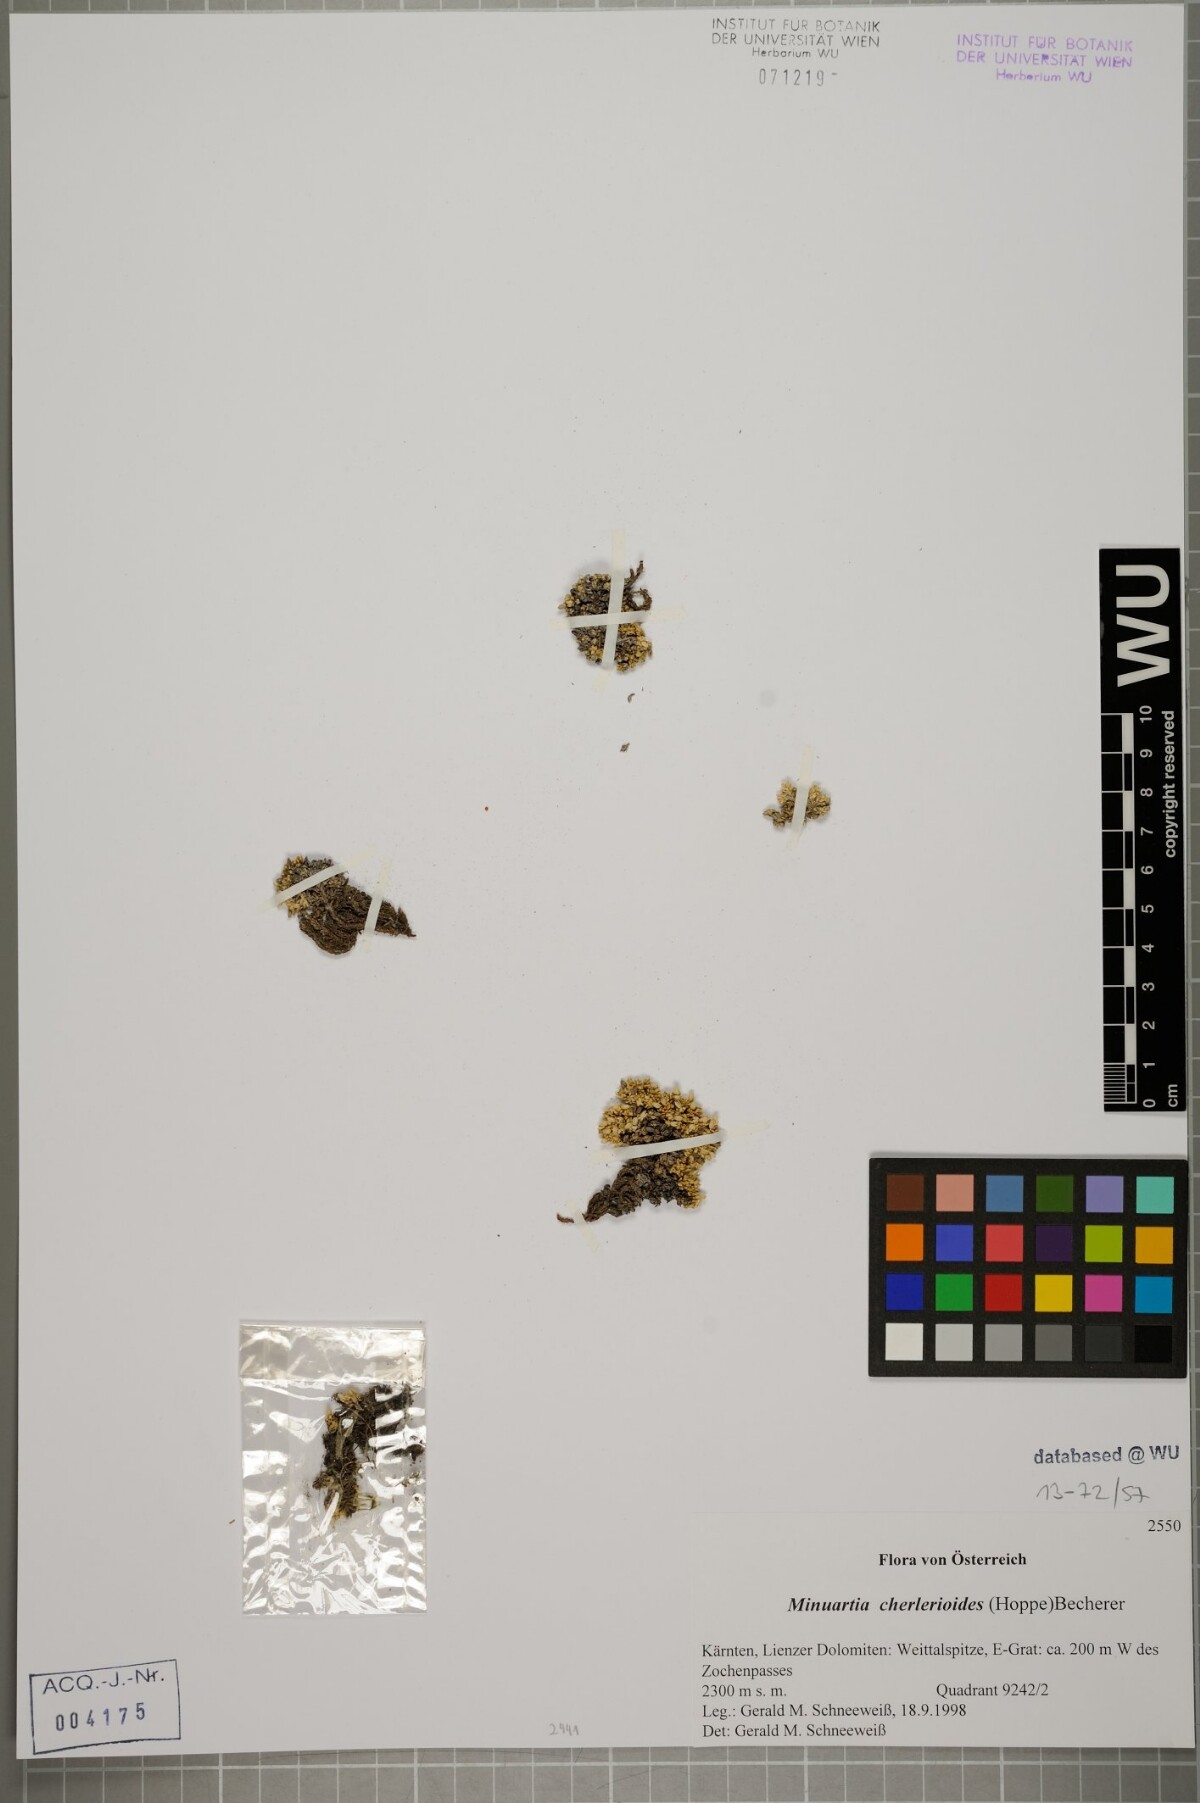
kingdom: Plantae
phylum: Tracheophyta
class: Magnoliopsida
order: Caryophyllales
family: Caryophyllaceae
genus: Facchinia
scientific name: Facchinia cherlerioides
